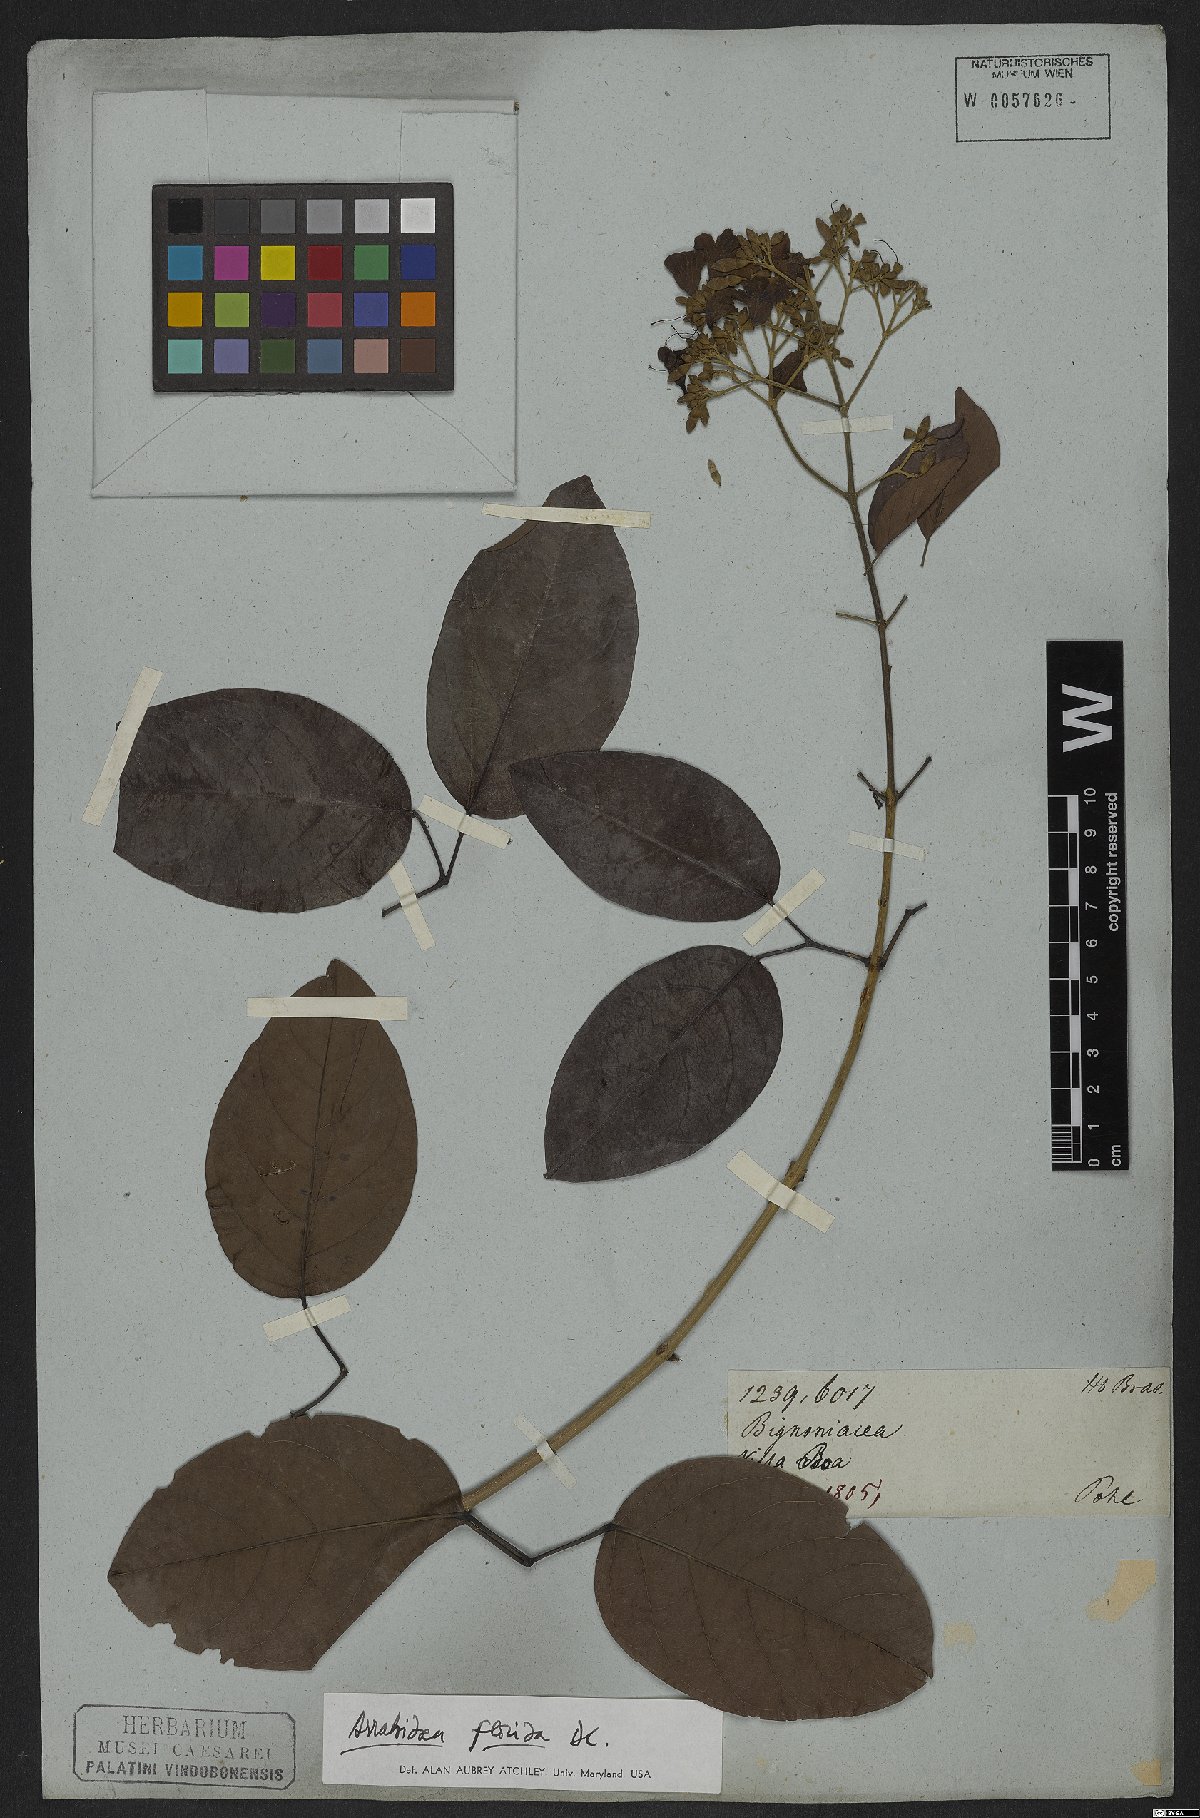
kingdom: Plantae
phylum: Tracheophyta
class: Magnoliopsida
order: Lamiales
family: Bignoniaceae
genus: Fridericia
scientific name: Fridericia florida
